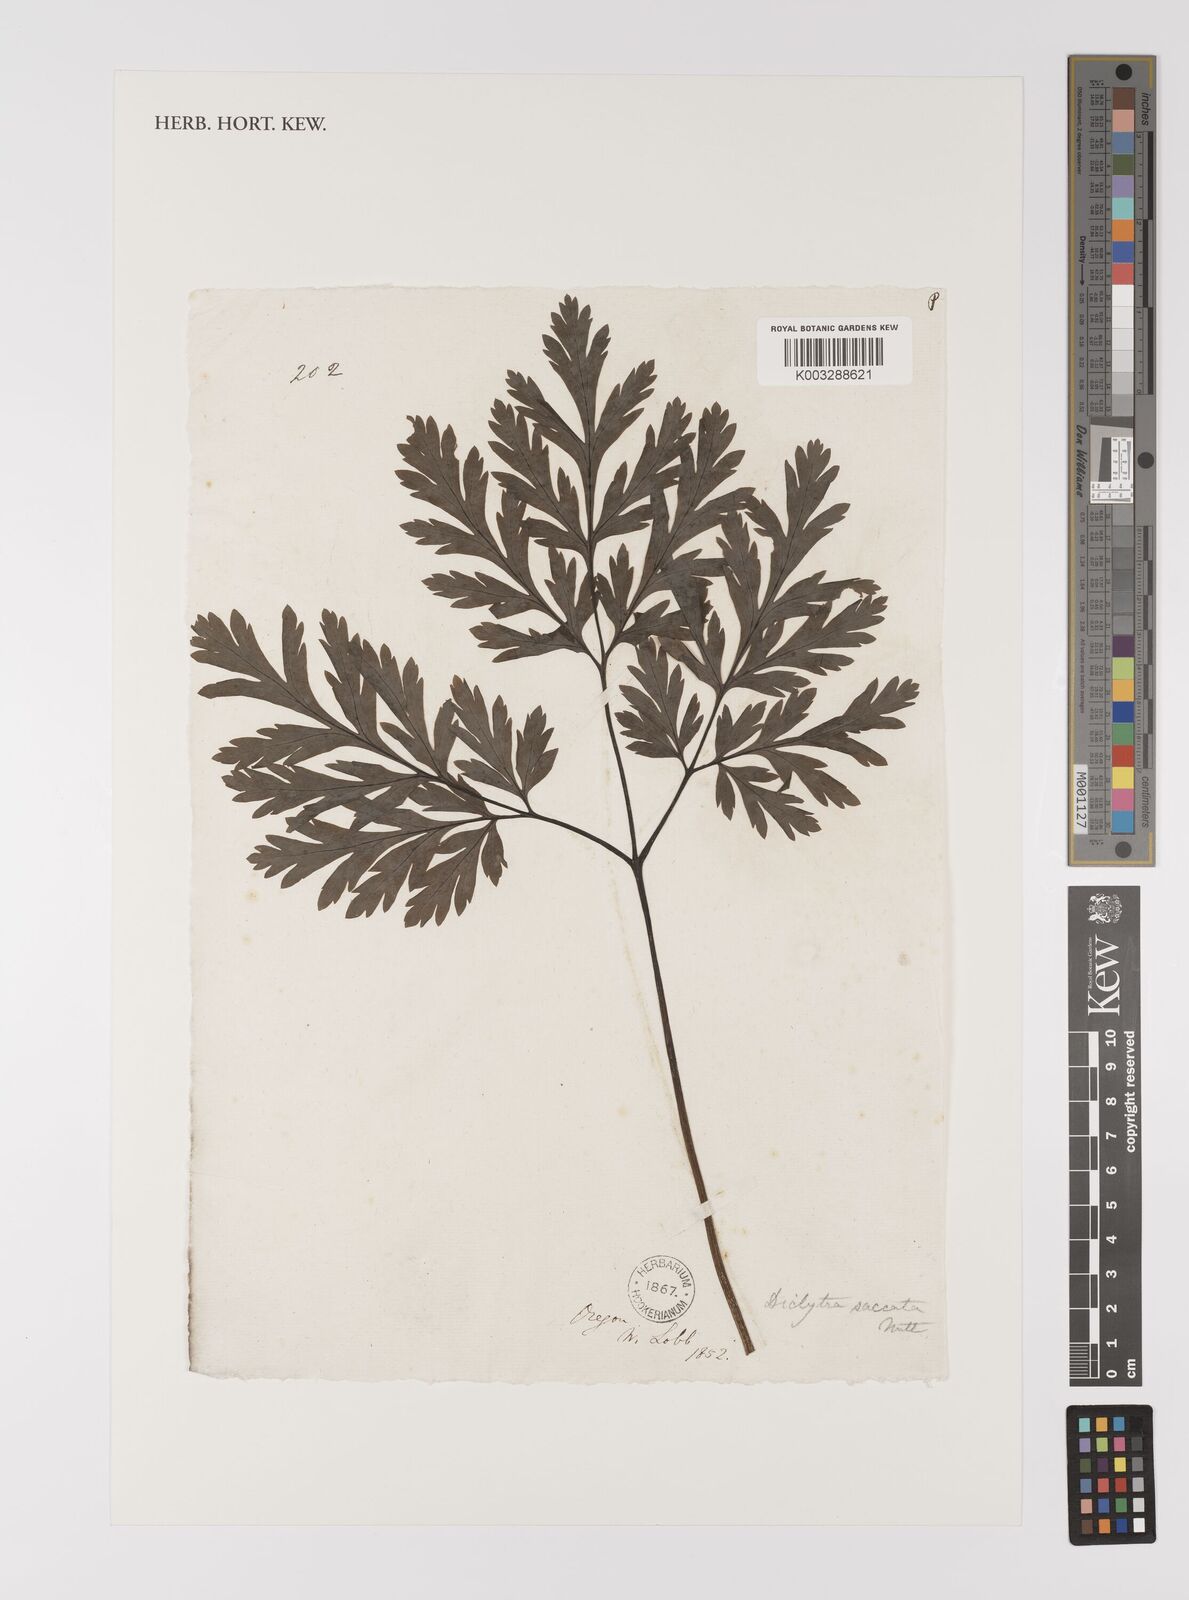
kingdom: Plantae
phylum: Tracheophyta
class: Magnoliopsida
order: Ranunculales
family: Papaveraceae
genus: Dicentra
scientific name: Dicentra
